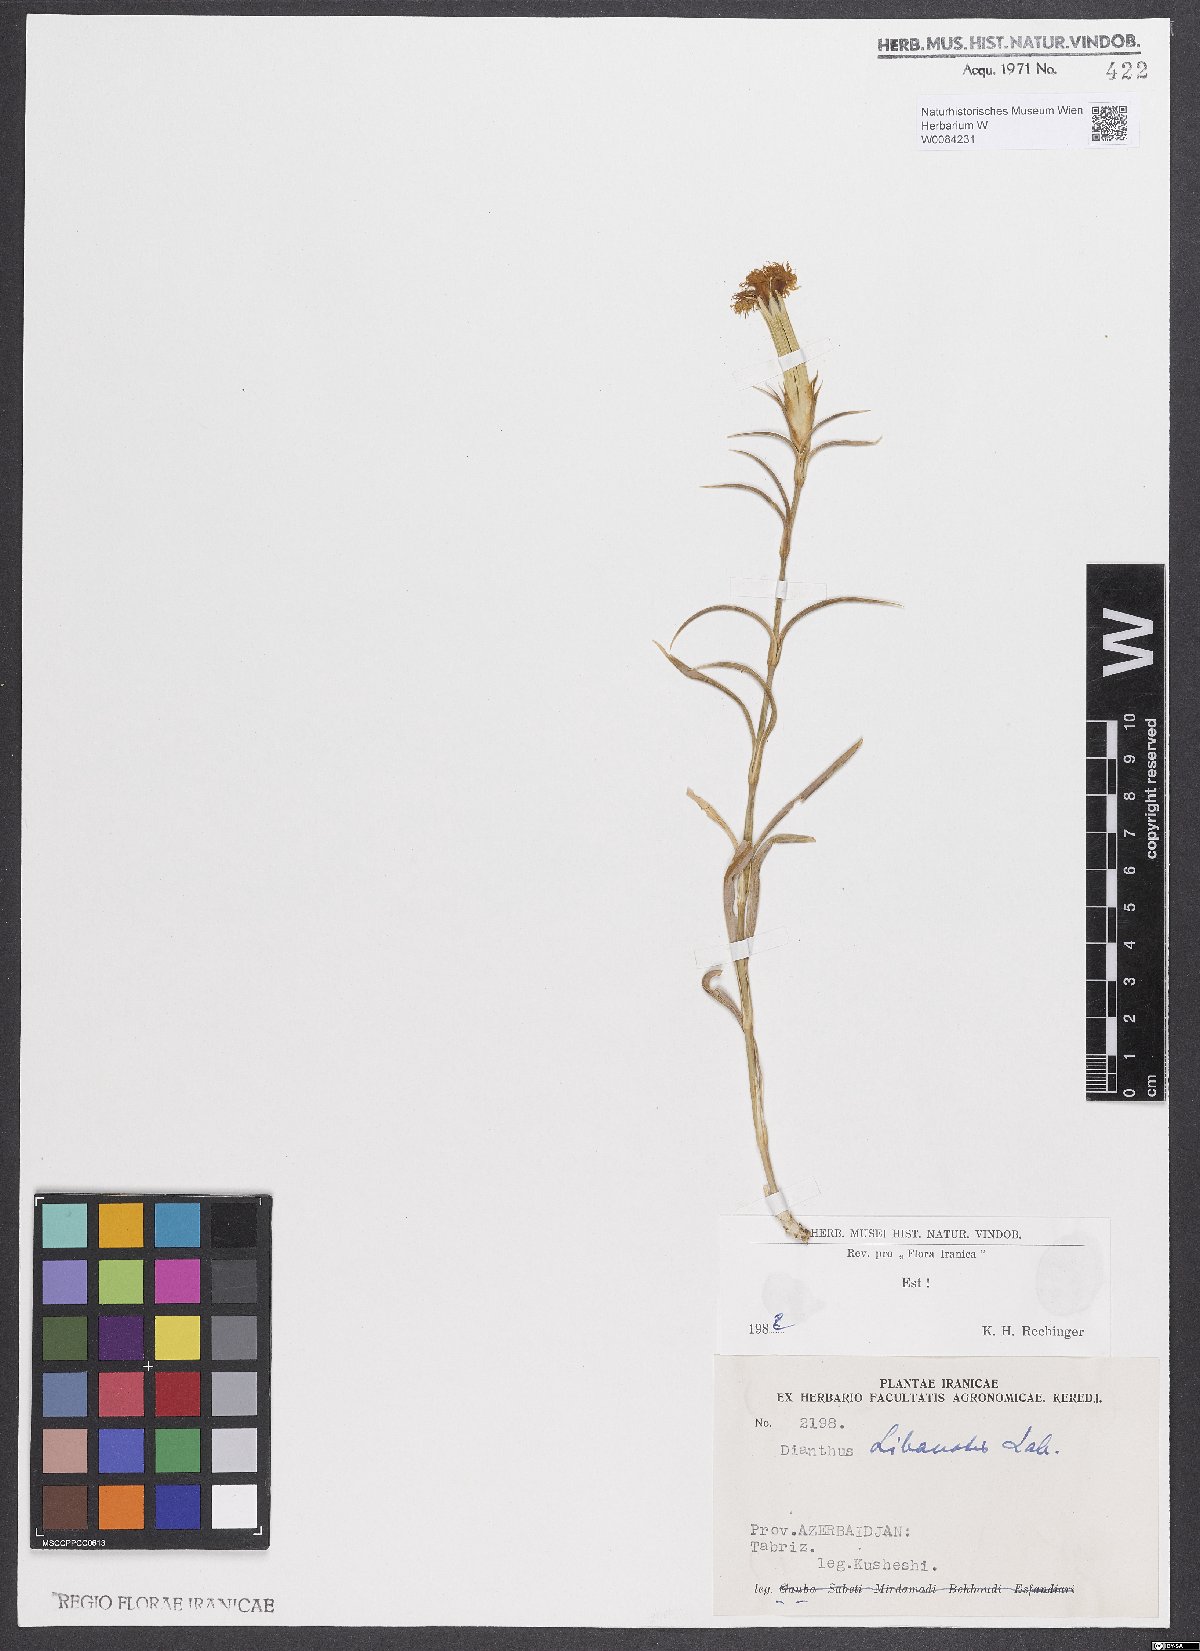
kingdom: Plantae
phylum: Tracheophyta
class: Magnoliopsida
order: Caryophyllales
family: Caryophyllaceae
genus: Dianthus
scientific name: Dianthus libanotis
